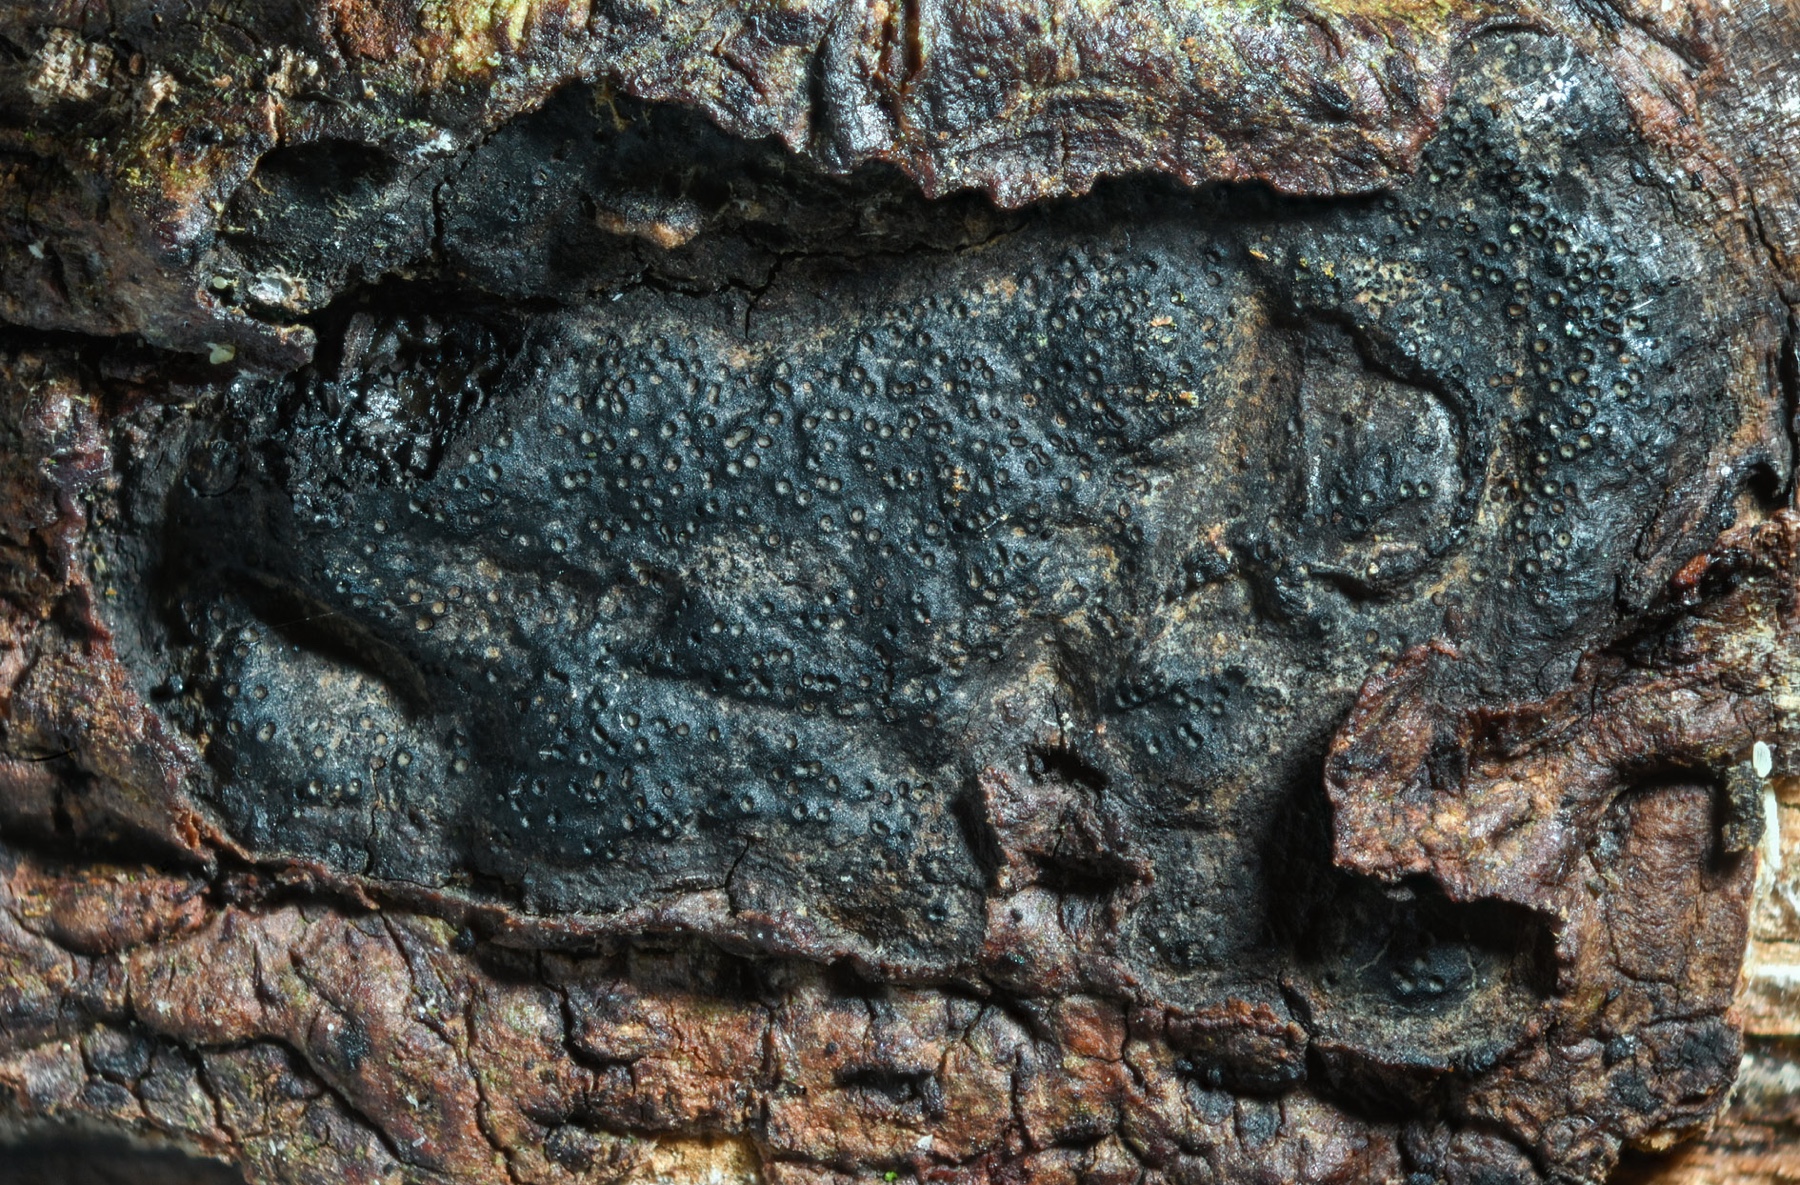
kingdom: Fungi
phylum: Ascomycota
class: Sordariomycetes
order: Xylariales
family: Graphostromataceae
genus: Biscogniauxia
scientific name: Biscogniauxia anceps
